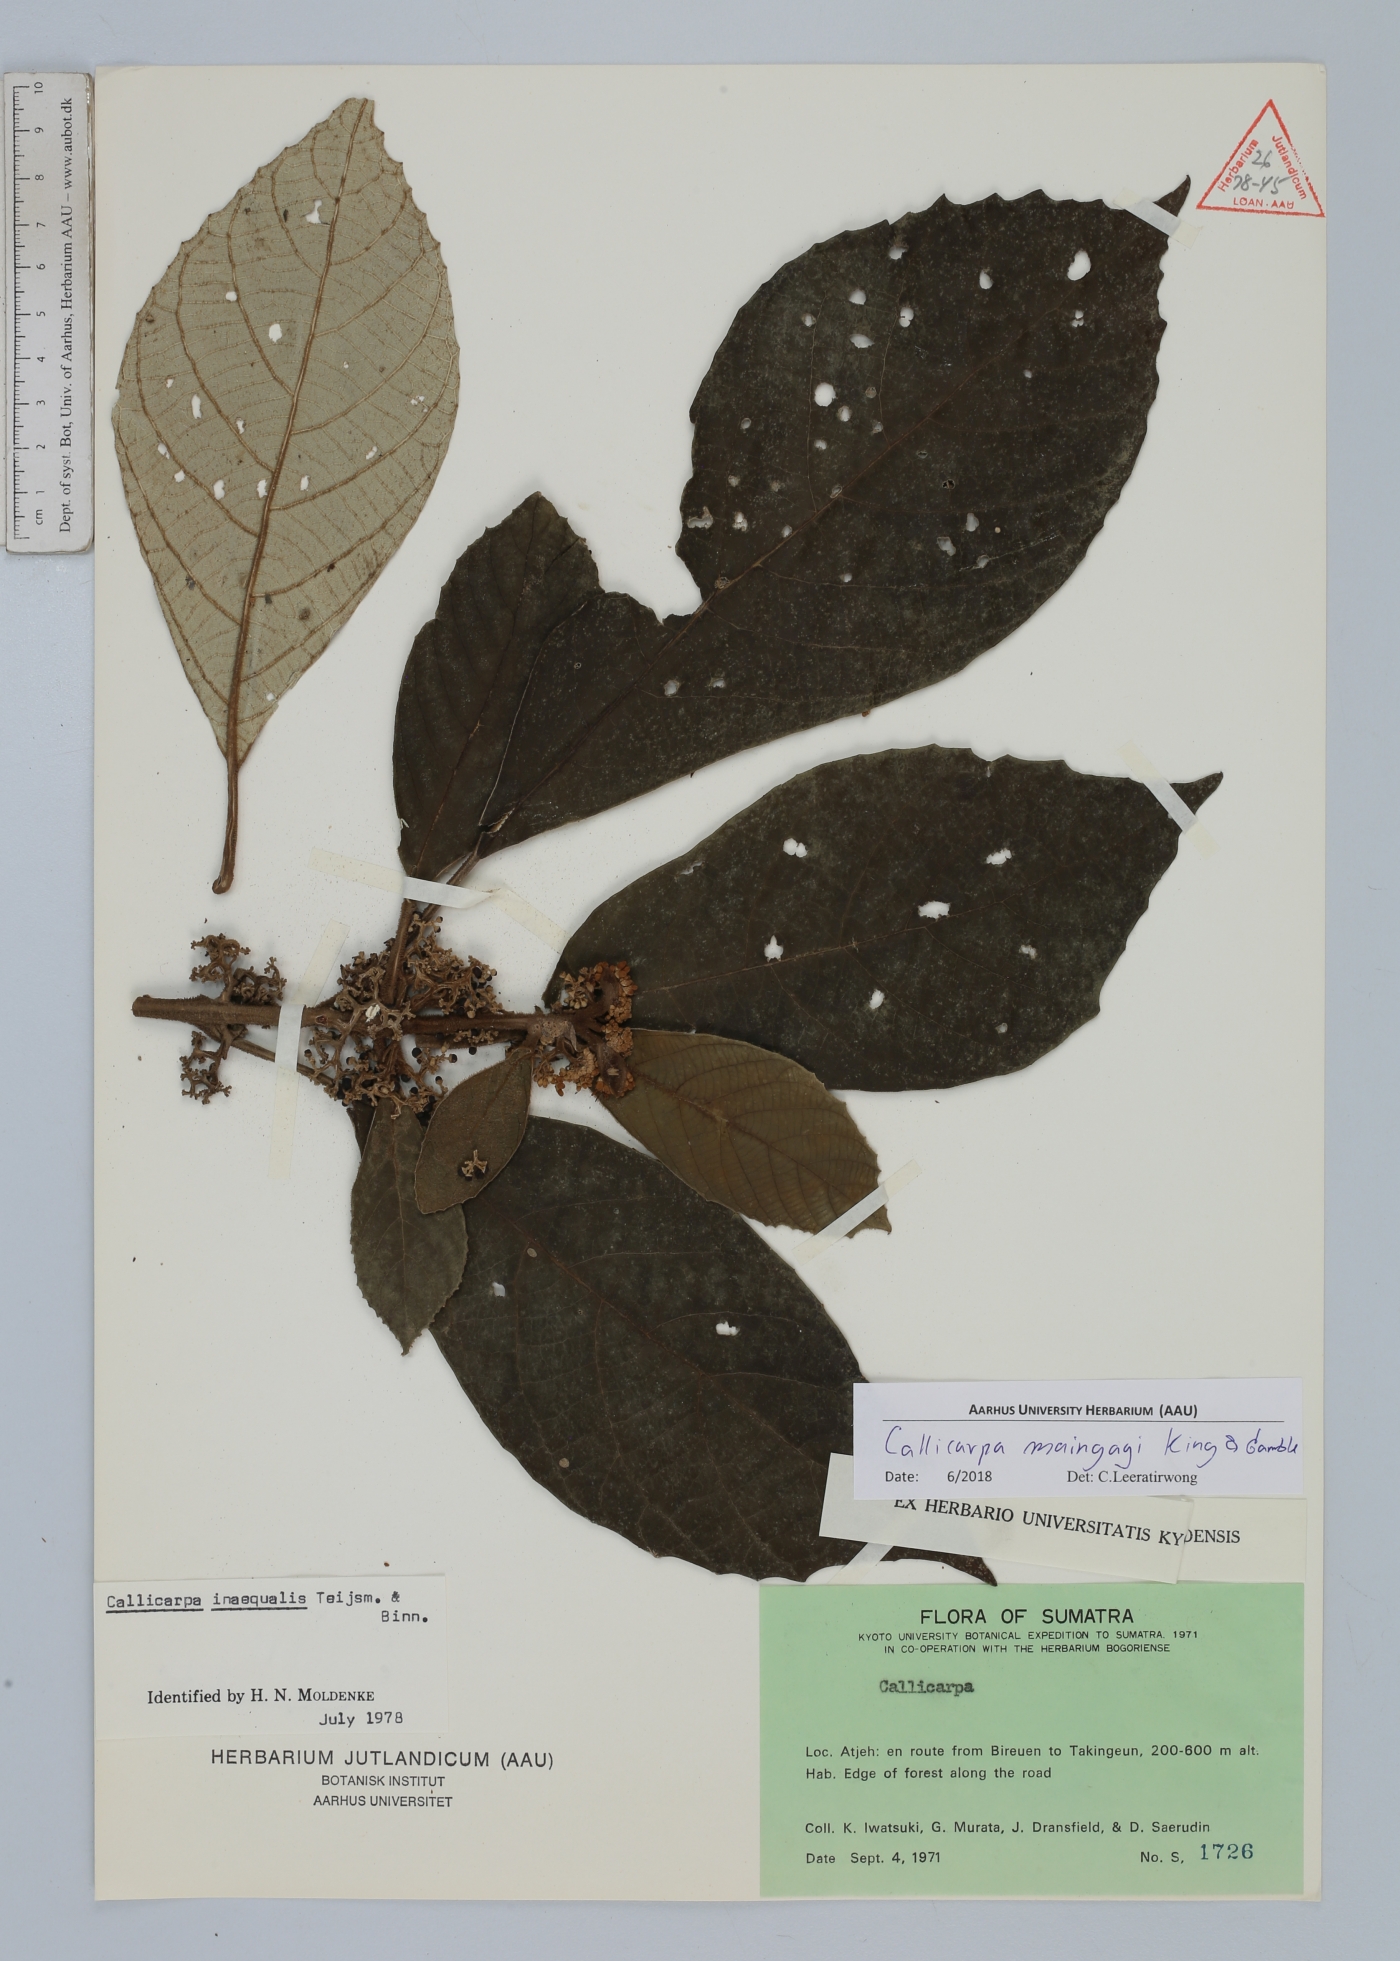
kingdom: Plantae
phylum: Tracheophyta
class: Magnoliopsida
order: Lamiales
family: Lamiaceae
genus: Callicarpa
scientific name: Callicarpa maingayi
